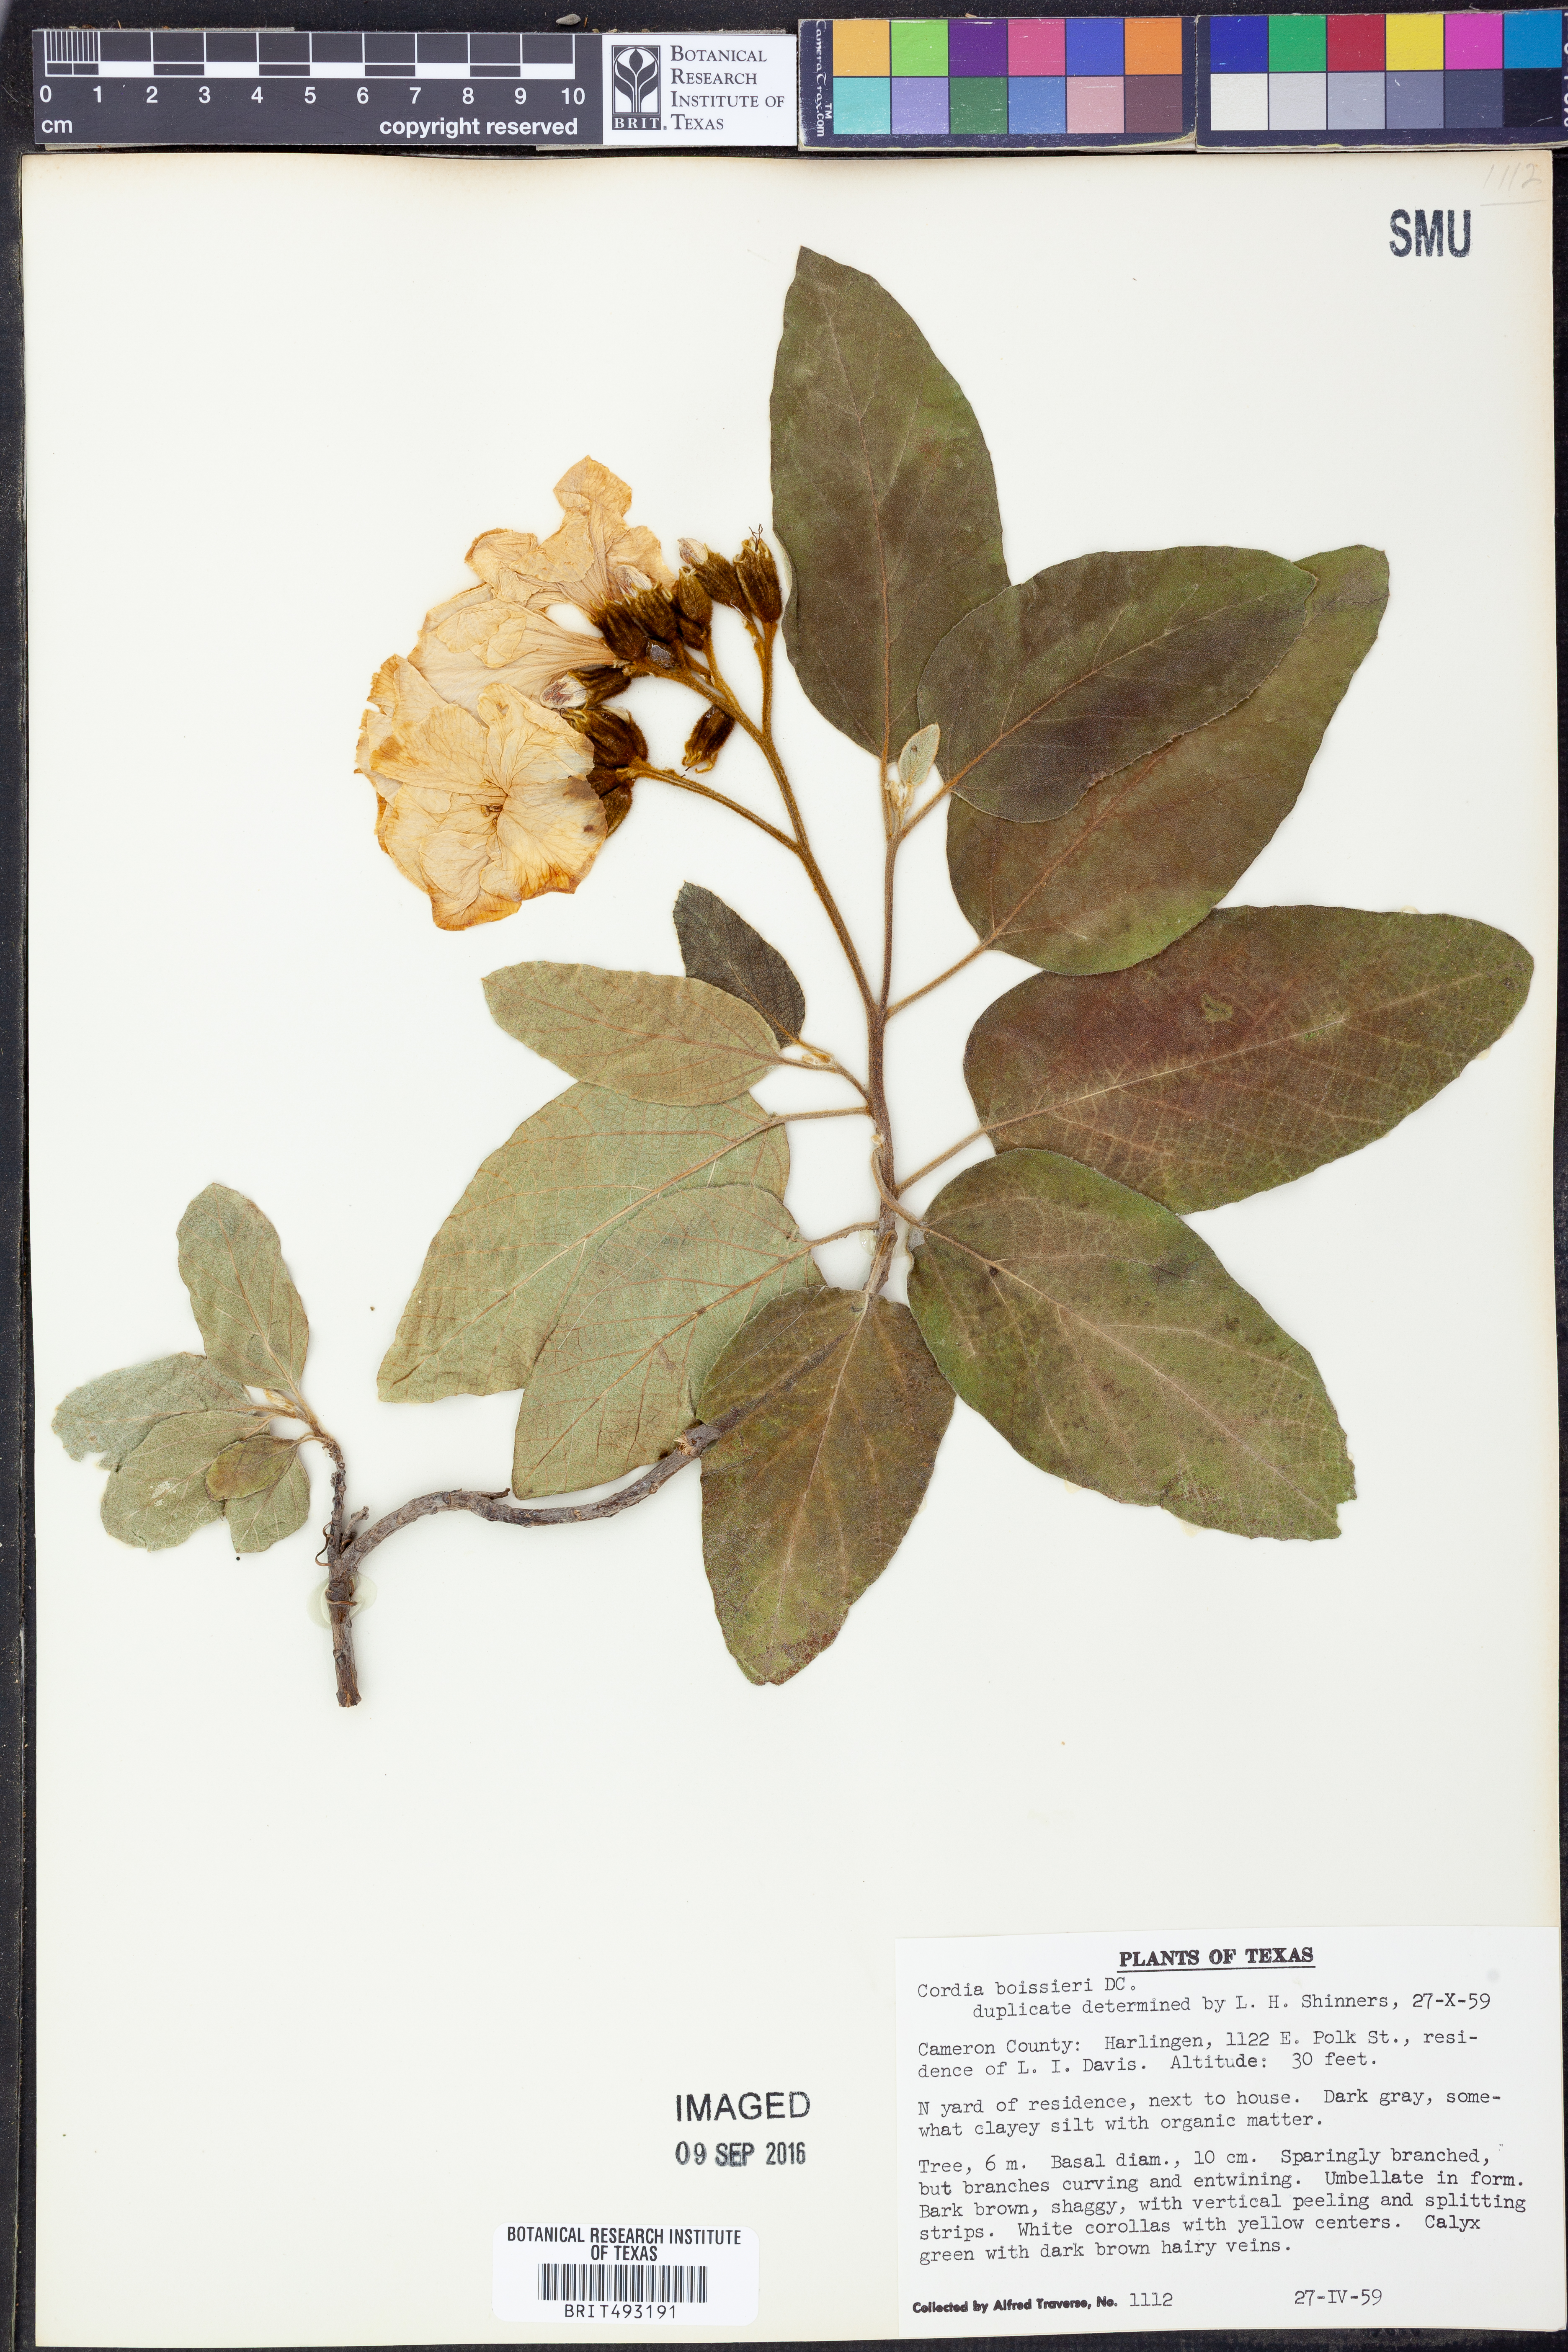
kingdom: Plantae
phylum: Tracheophyta
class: Magnoliopsida
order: Boraginales
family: Cordiaceae
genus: Cordia
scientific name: Cordia boissieri
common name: Mexican-olive
